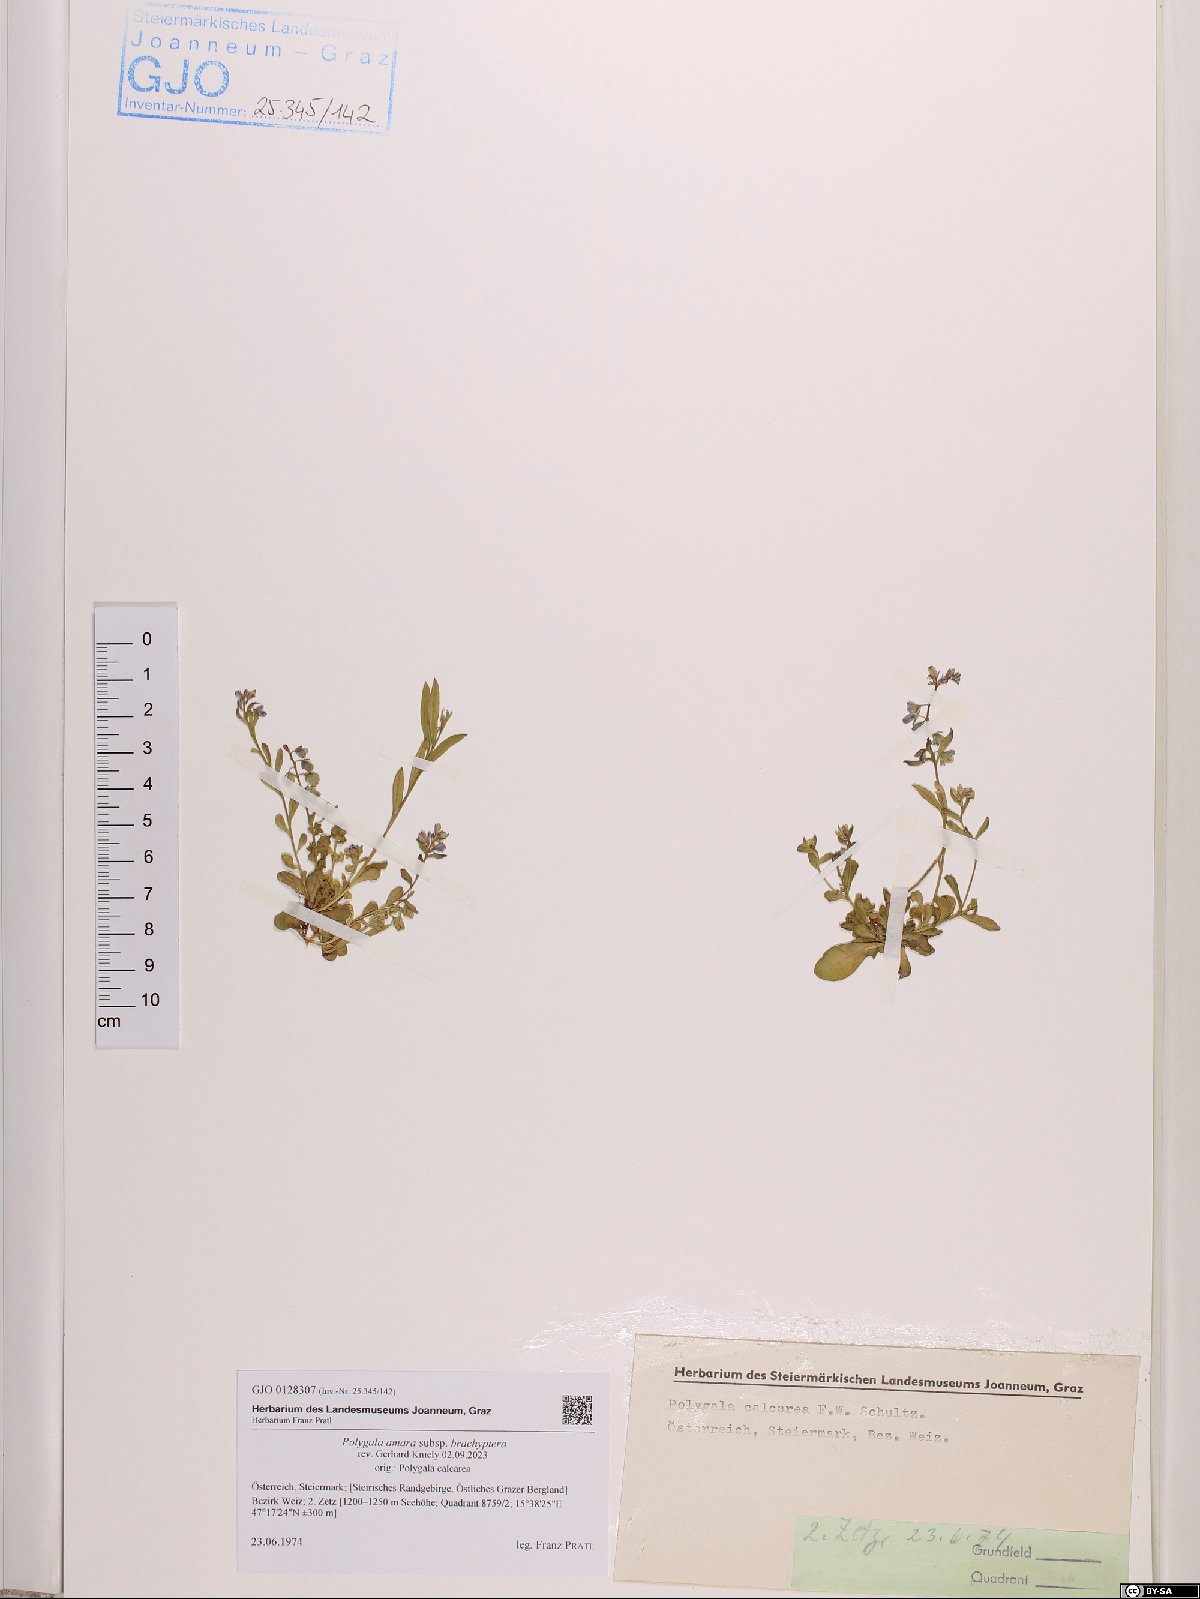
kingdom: Plantae
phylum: Tracheophyta
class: Magnoliopsida
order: Fabales
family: Polygalaceae
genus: Polygala
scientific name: Polygala amara
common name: Milkwort
